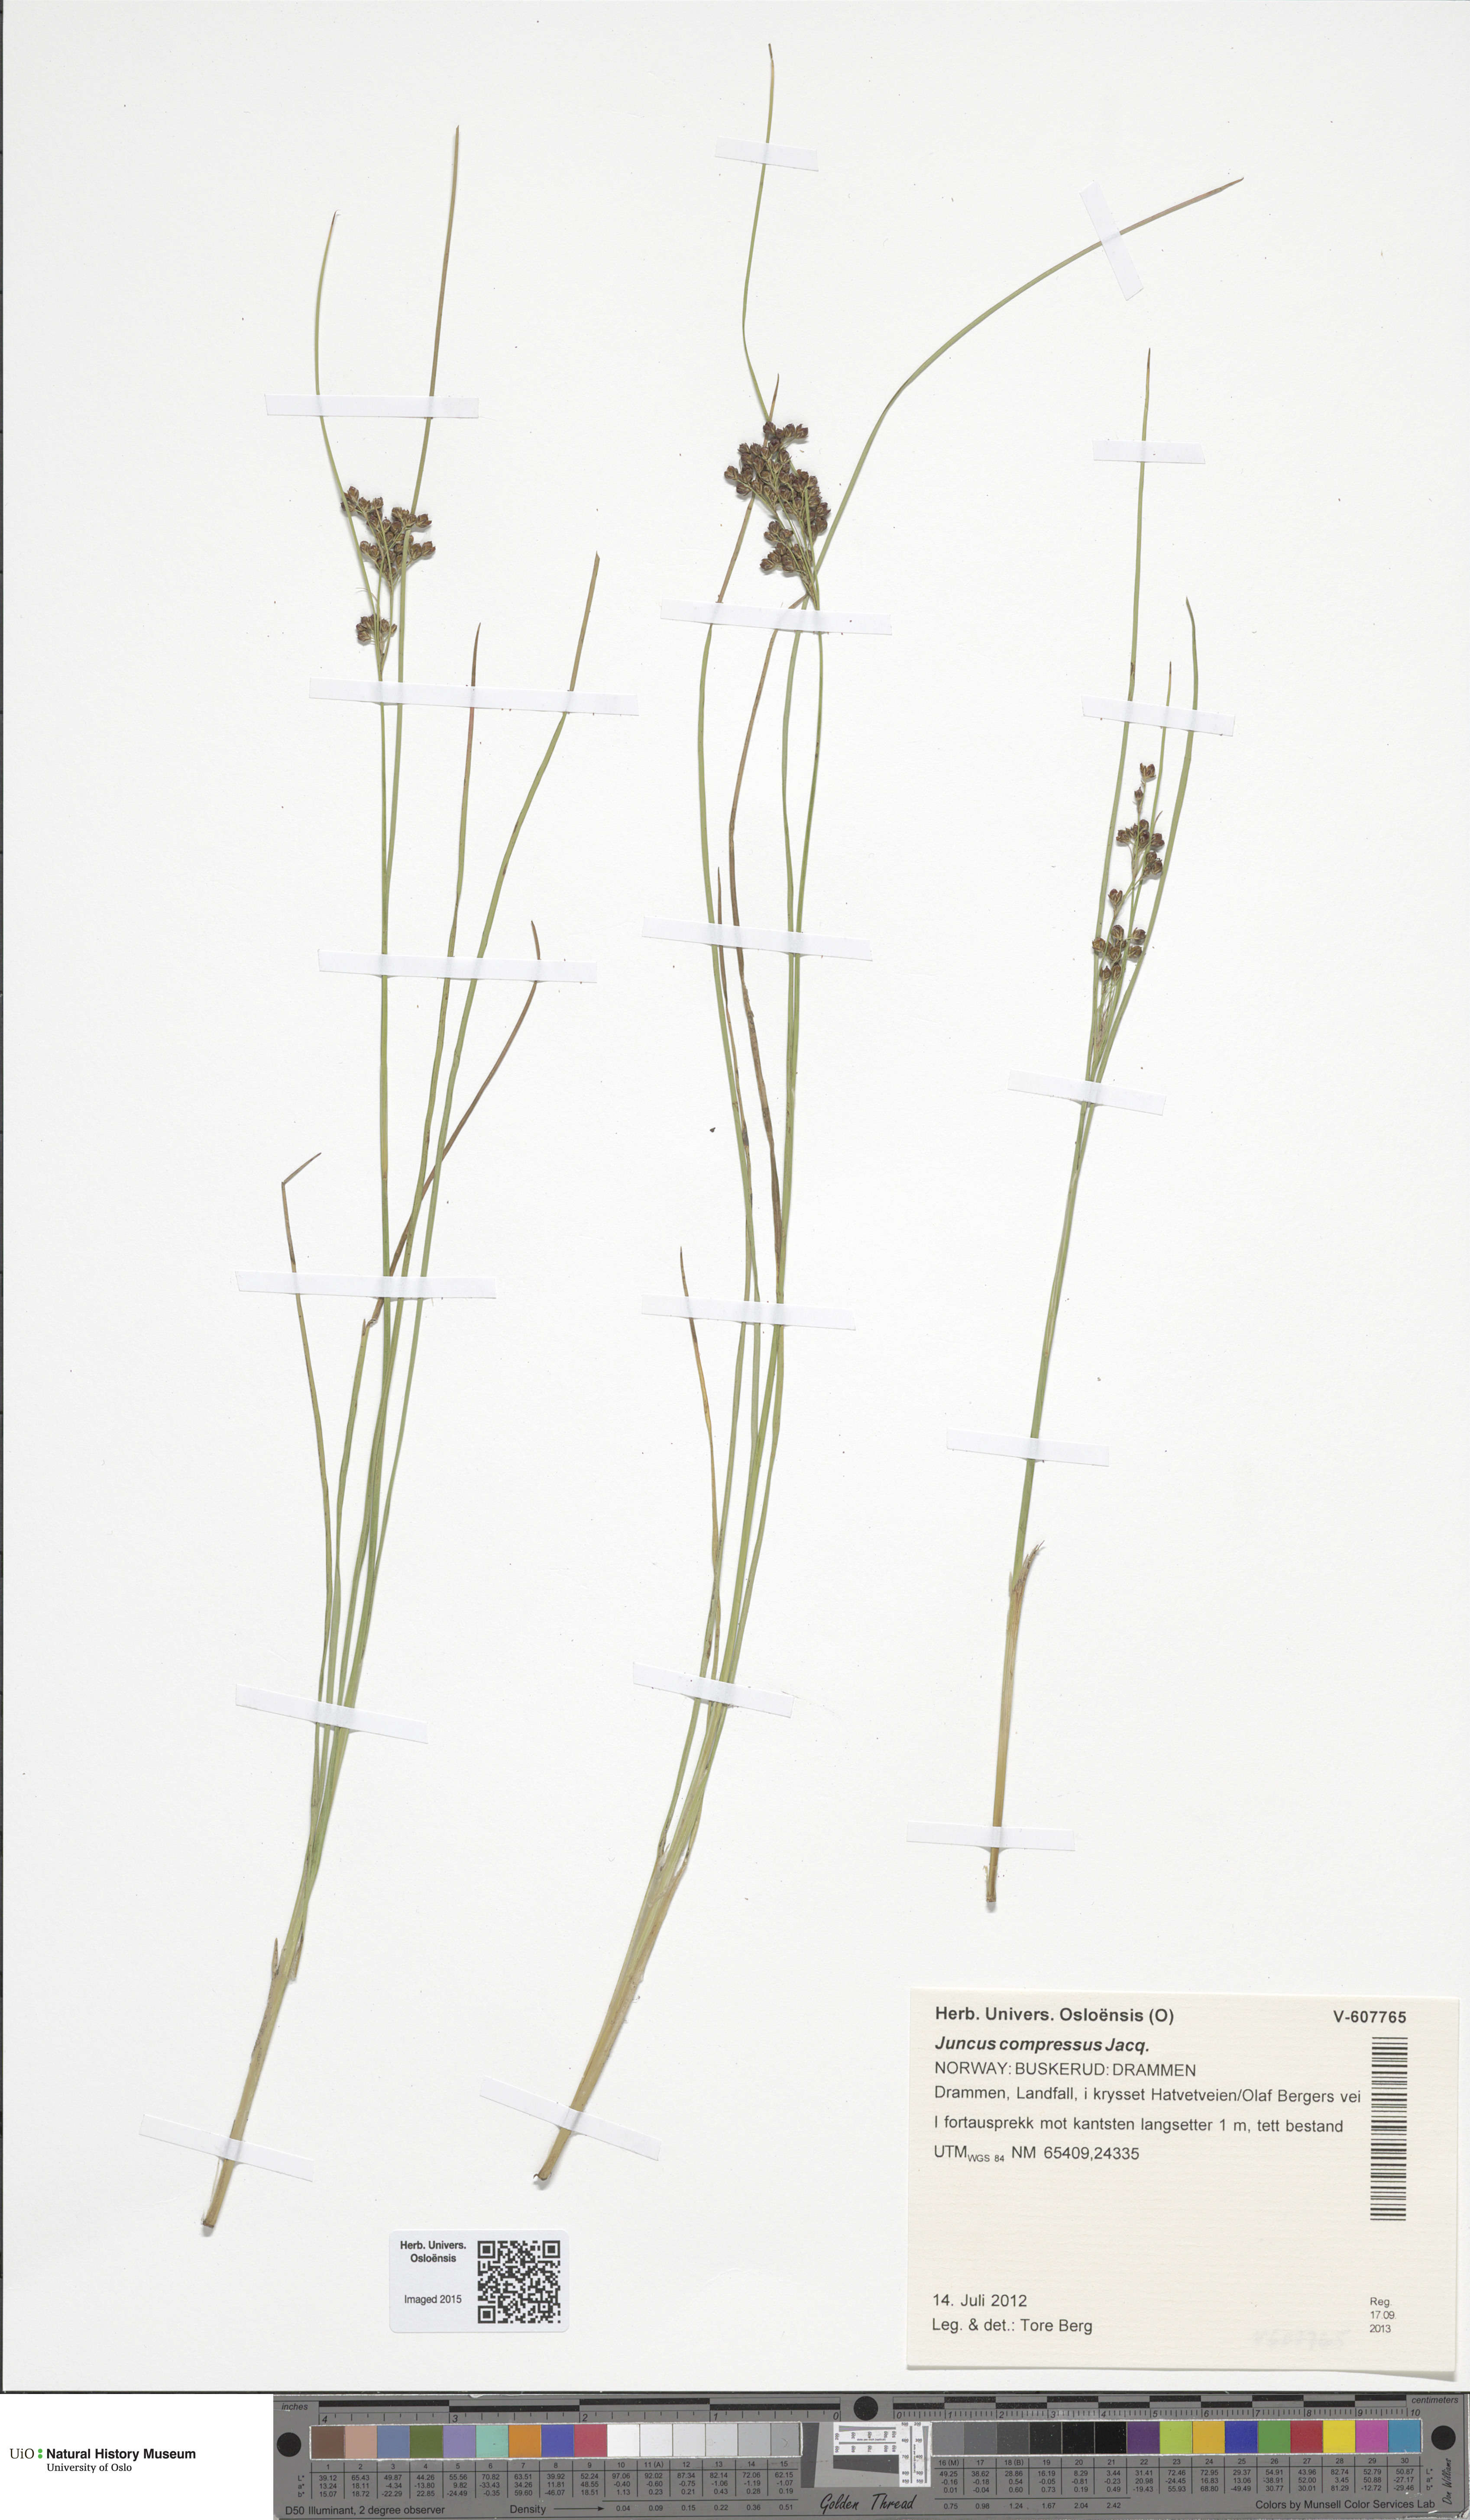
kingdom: Plantae
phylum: Tracheophyta
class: Liliopsida
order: Poales
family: Juncaceae
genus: Juncus
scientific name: Juncus compressus
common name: Round-fruited rush
